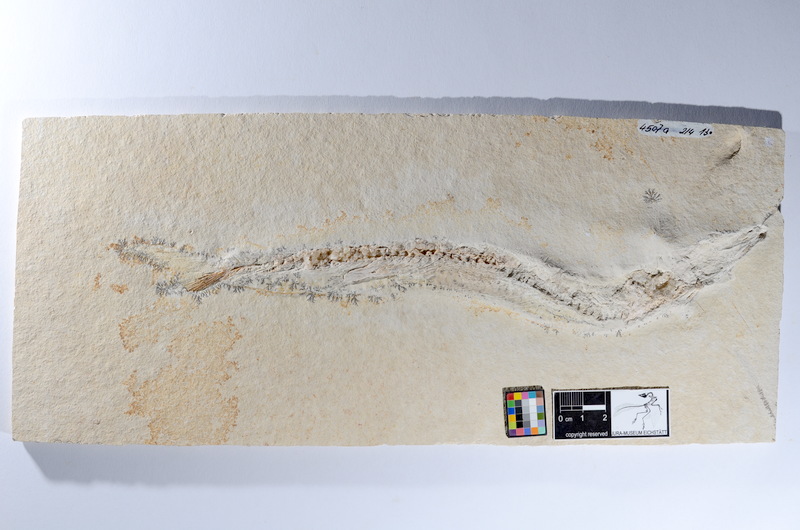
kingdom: Animalia
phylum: Chordata
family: Allothrissopidae
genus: Allothrissops
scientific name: Allothrissops
